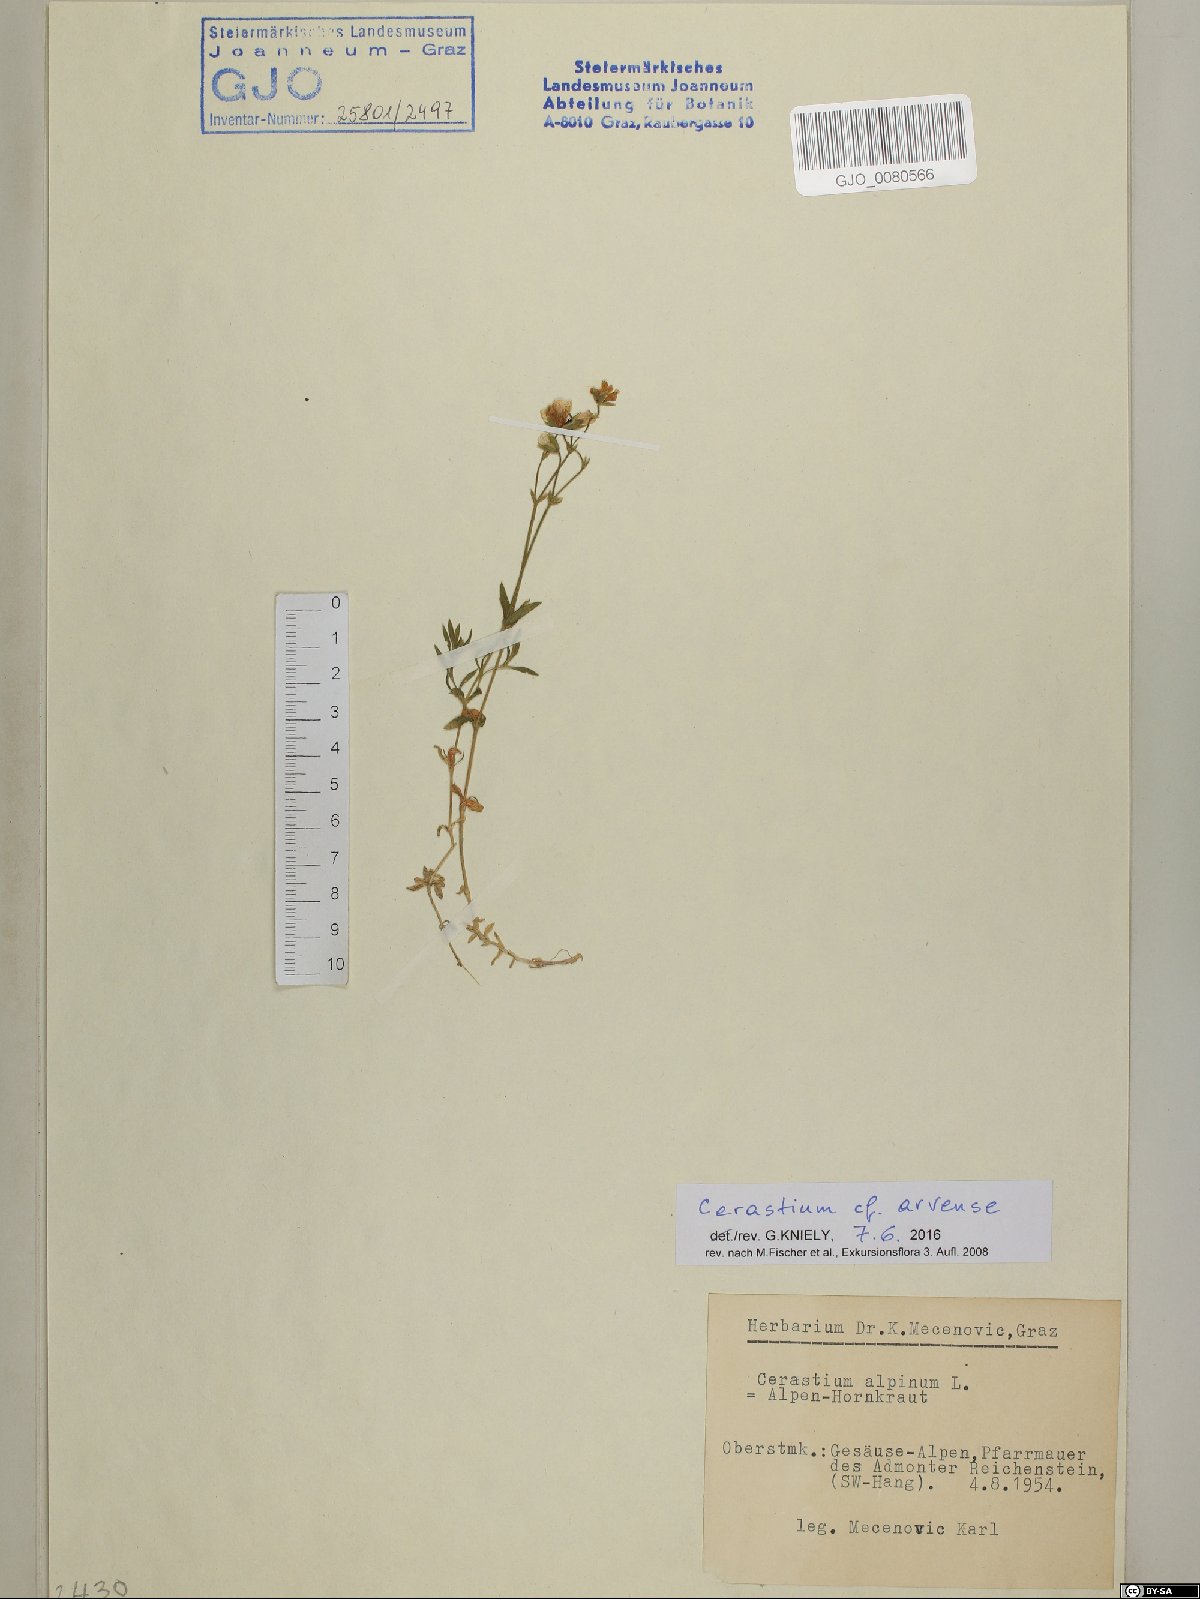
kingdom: Plantae
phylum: Tracheophyta
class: Magnoliopsida
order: Caryophyllales
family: Caryophyllaceae
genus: Cerastium
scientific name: Cerastium arvense
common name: Field mouse-ear
